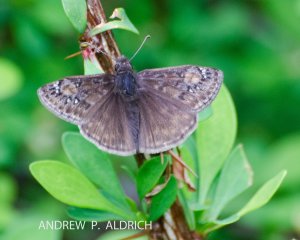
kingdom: Animalia
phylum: Arthropoda
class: Insecta
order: Lepidoptera
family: Hesperiidae
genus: Gesta
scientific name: Gesta
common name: Juvenal's Duskywing
